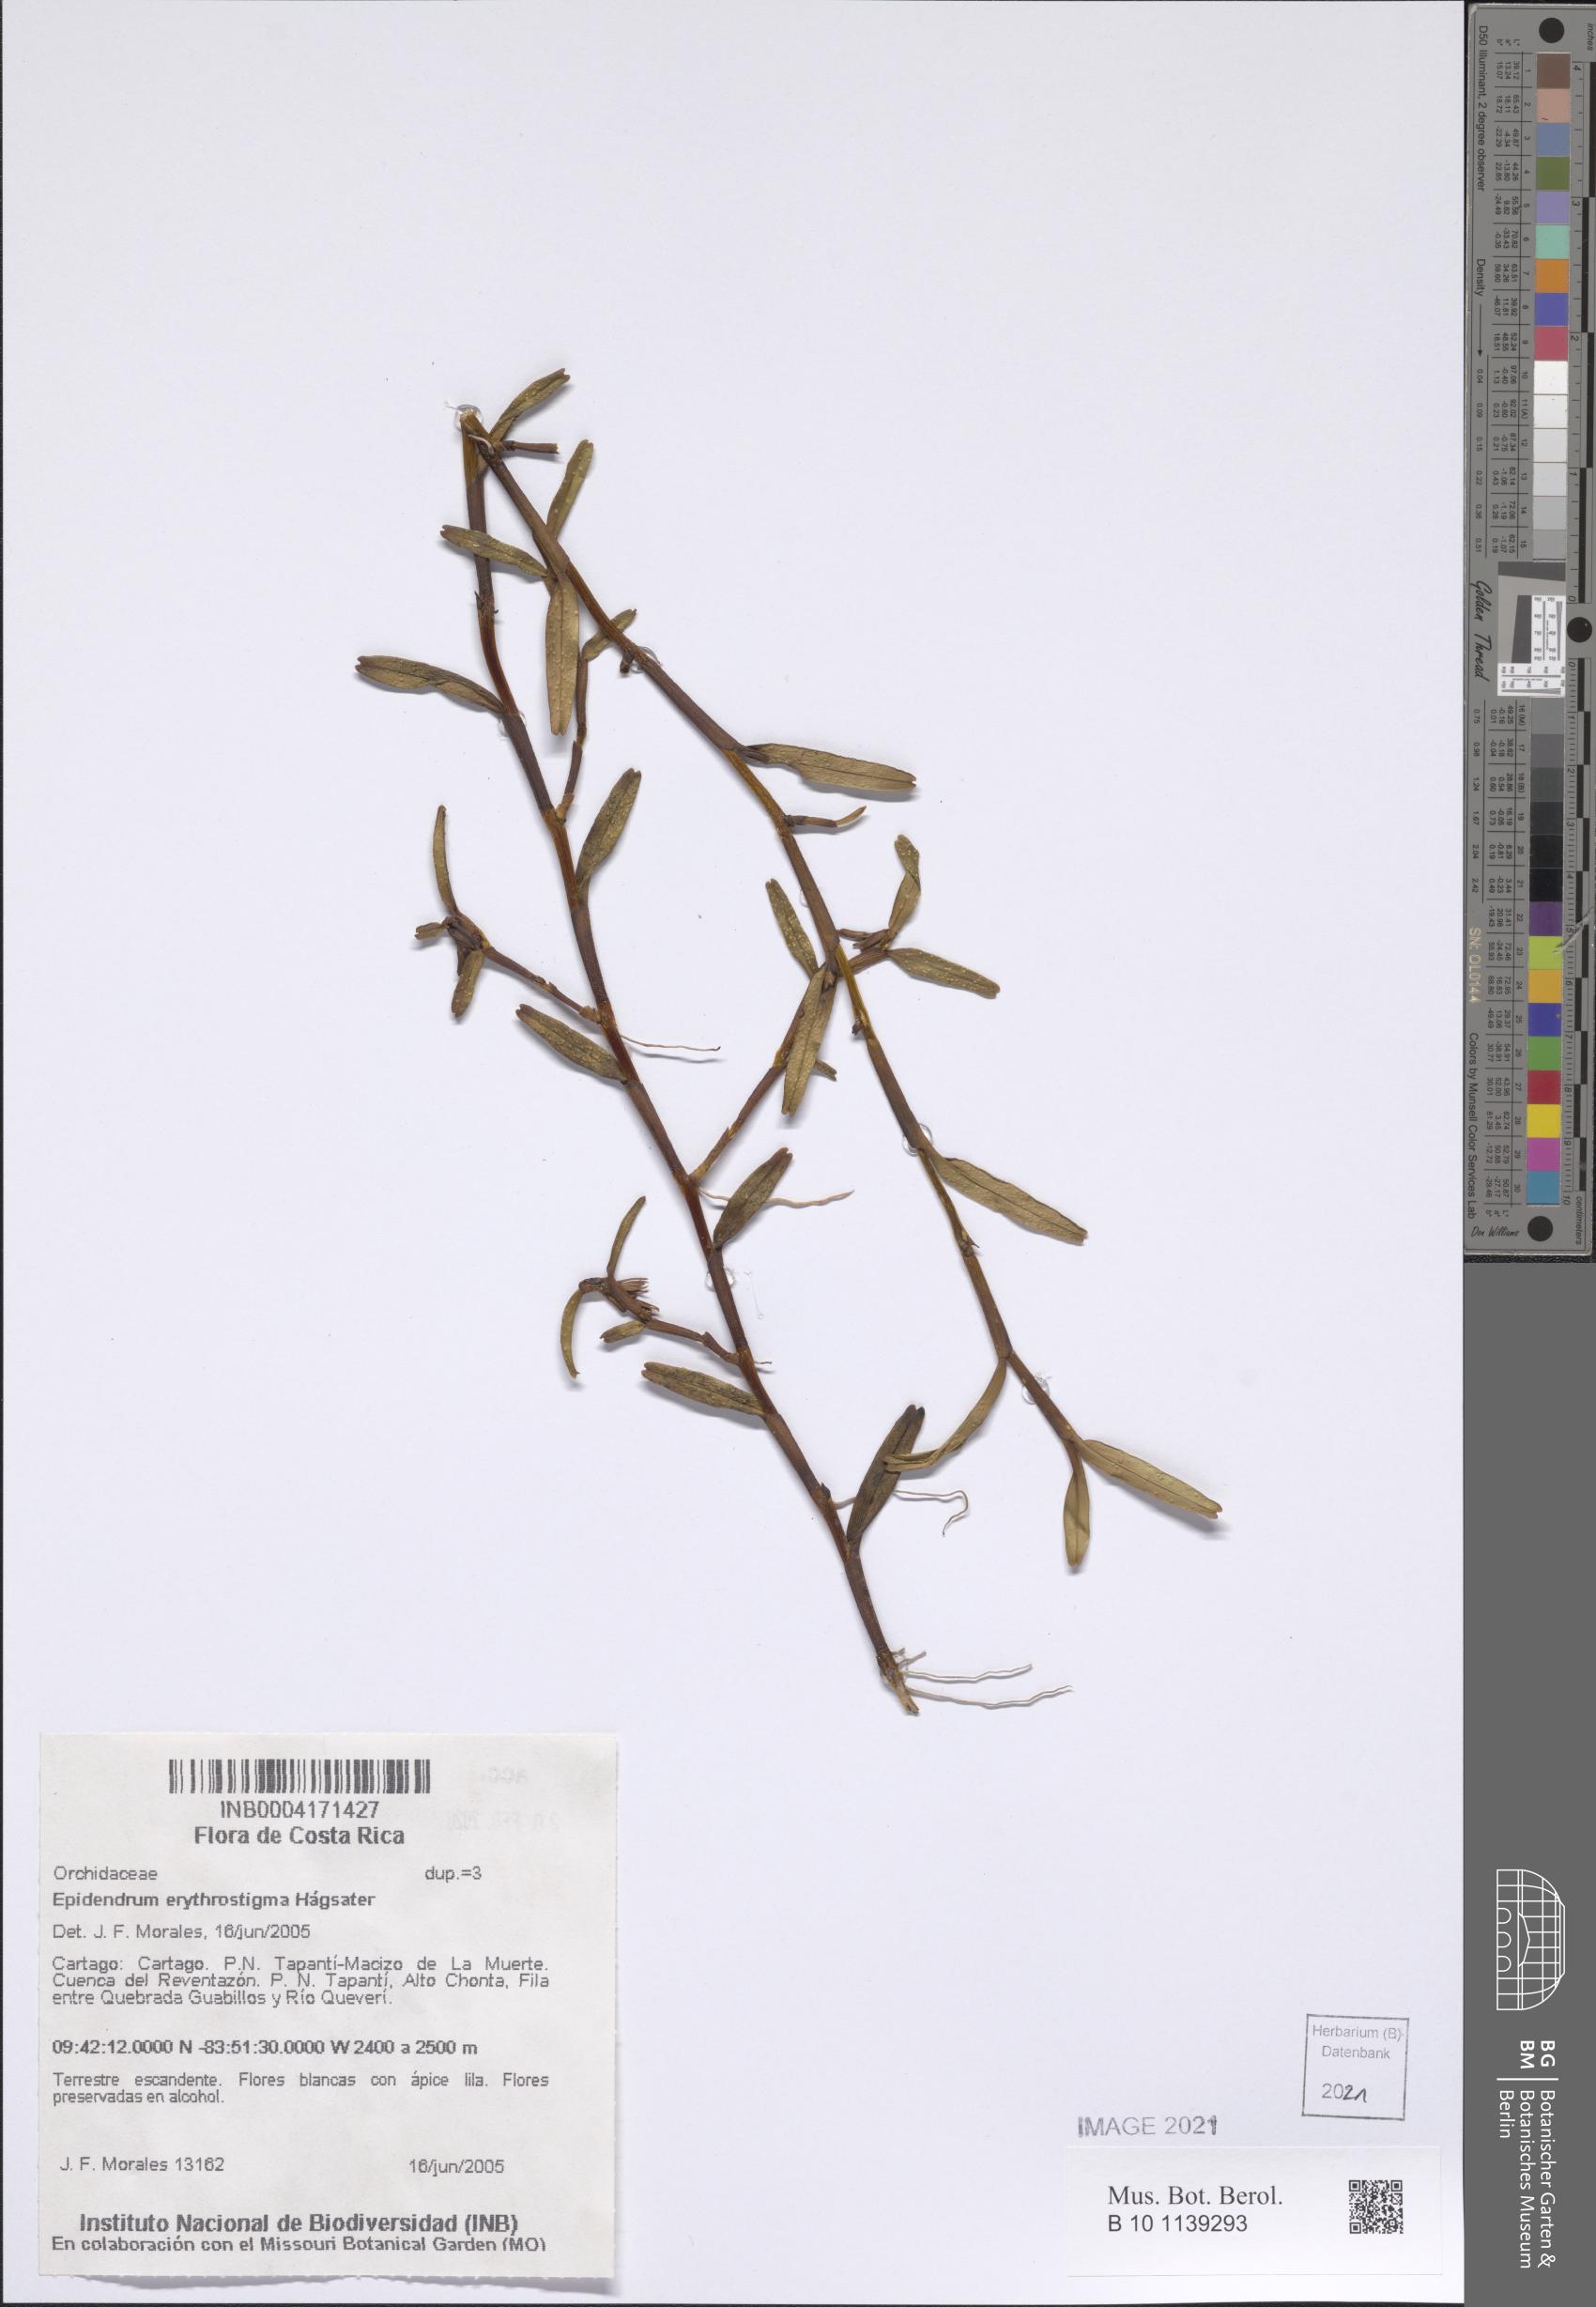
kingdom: Plantae
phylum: Tracheophyta
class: Liliopsida
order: Asparagales
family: Orchidaceae
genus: Epidendrum
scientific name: Epidendrum erythrostigma
